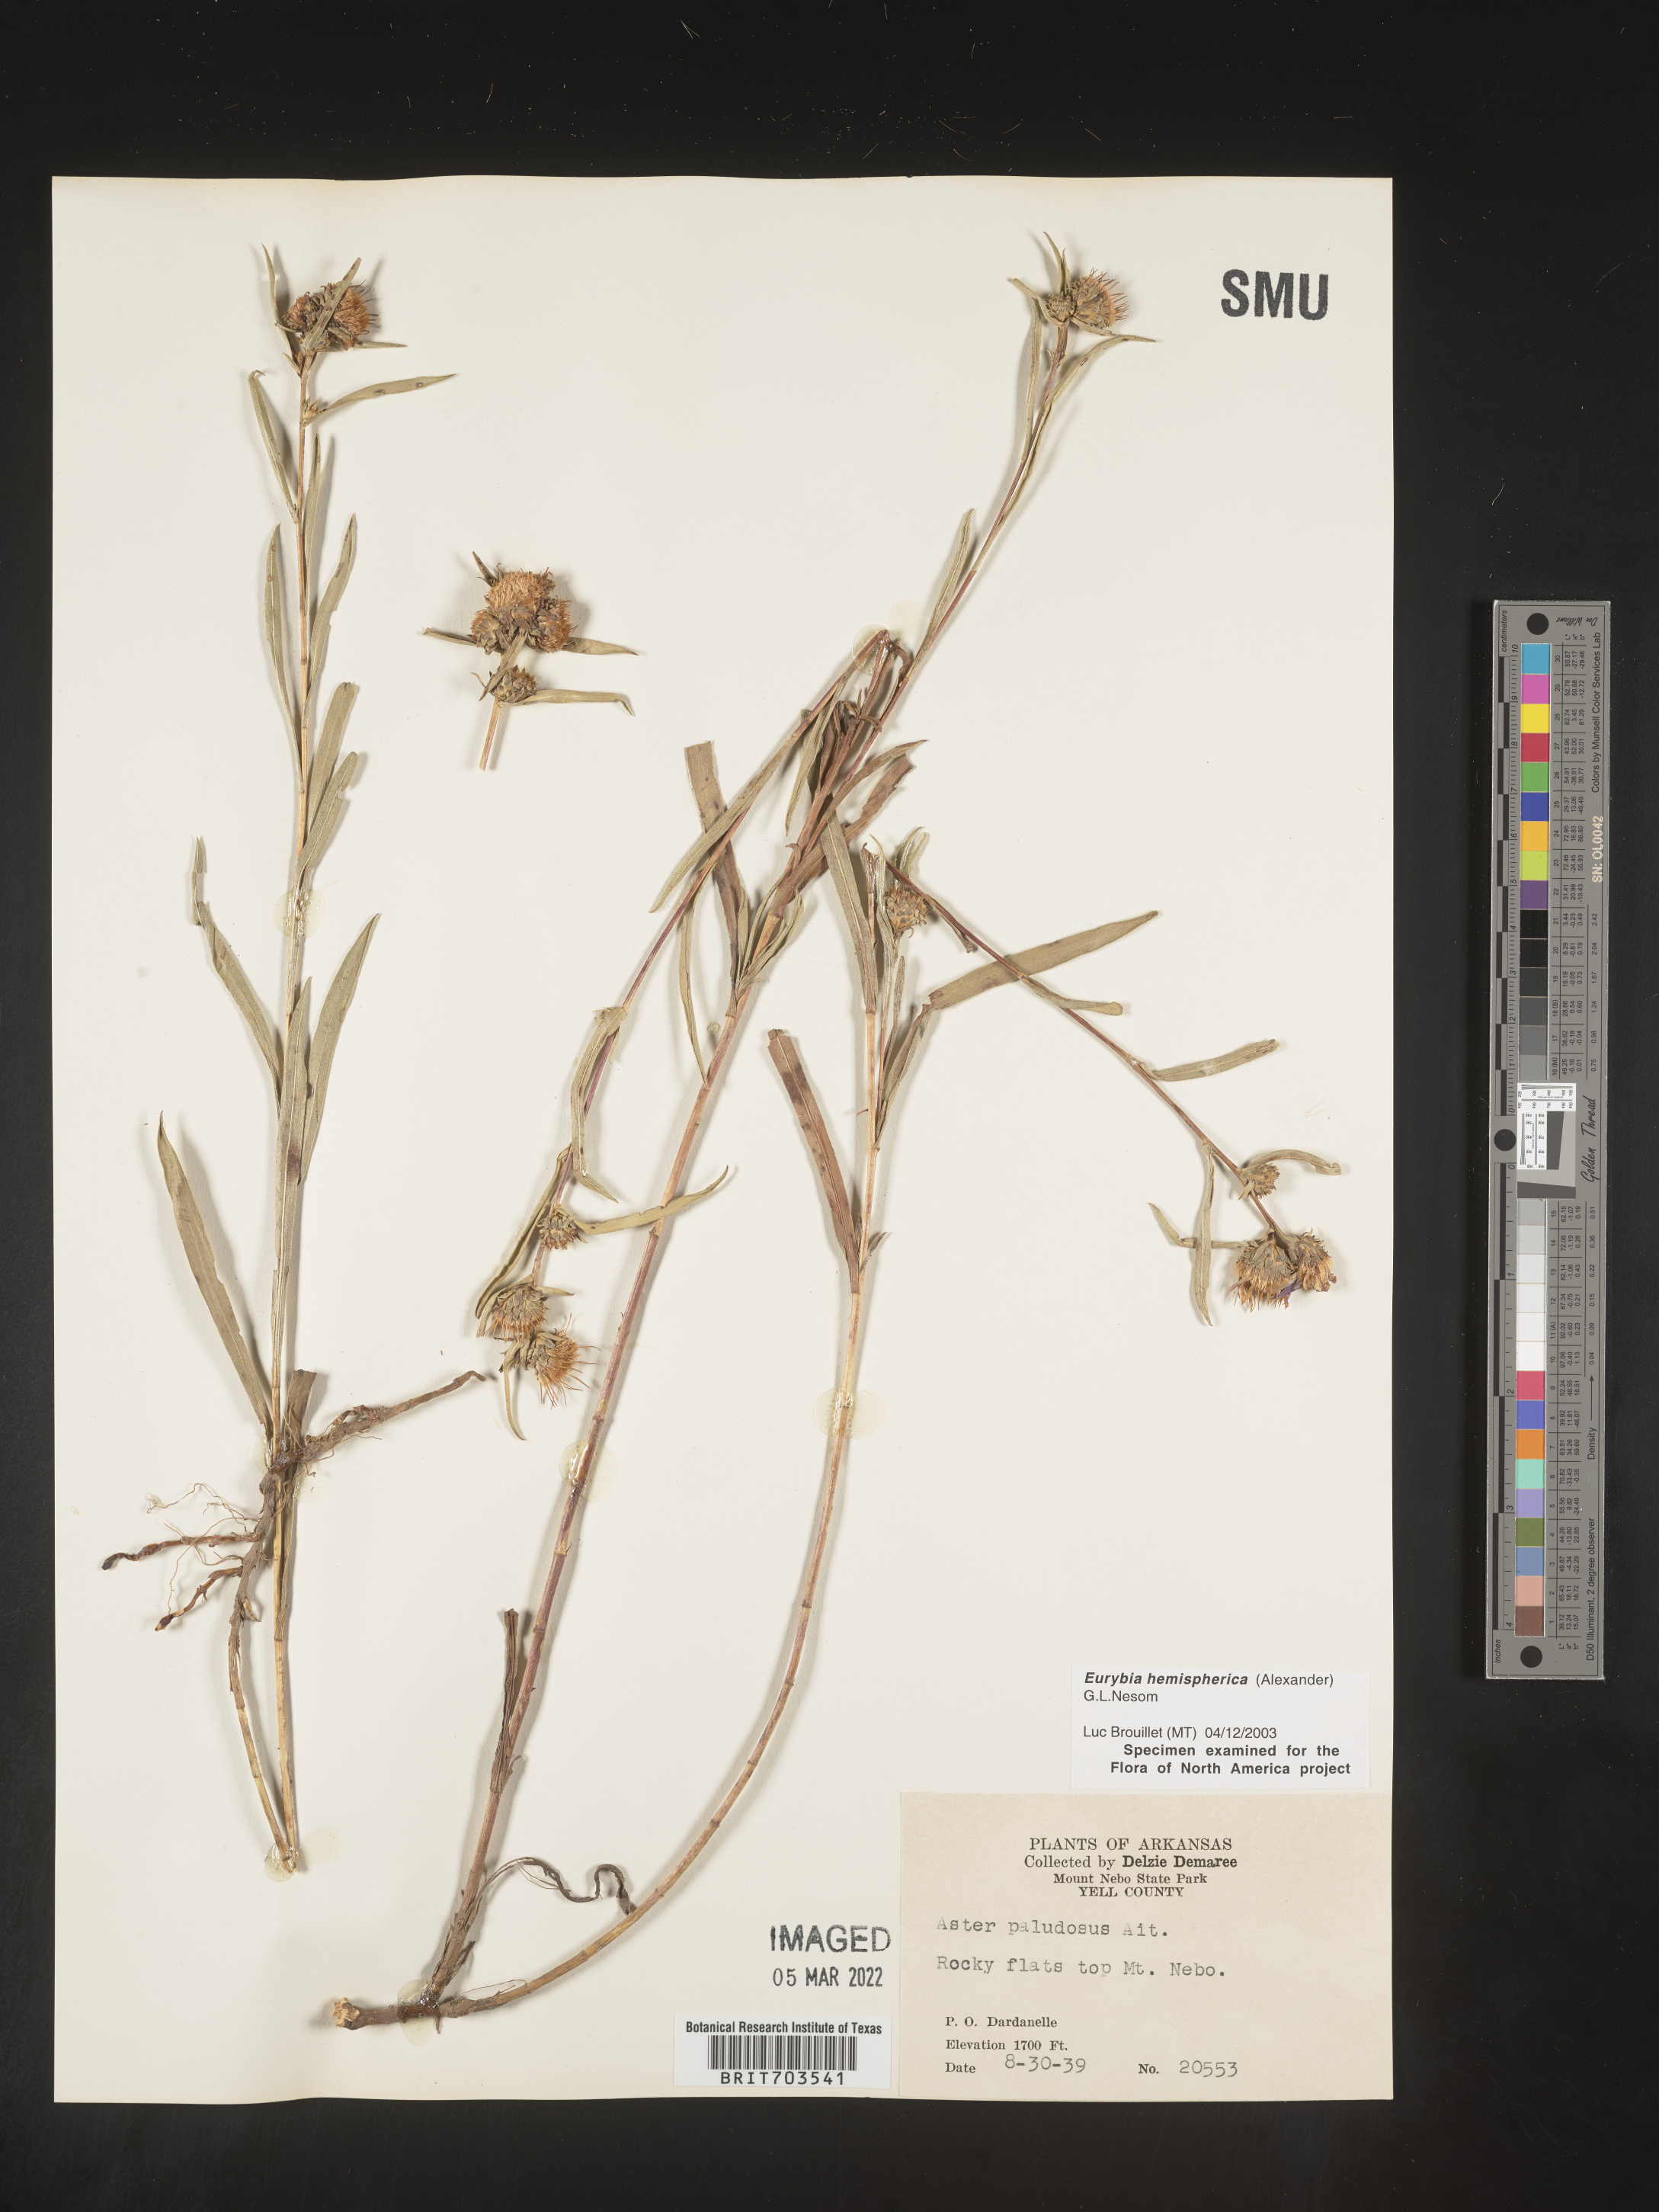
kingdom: Plantae
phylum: Tracheophyta
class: Magnoliopsida
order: Asterales
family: Asteraceae
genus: Eurybia
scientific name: Eurybia hemispherica
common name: Showy aster
